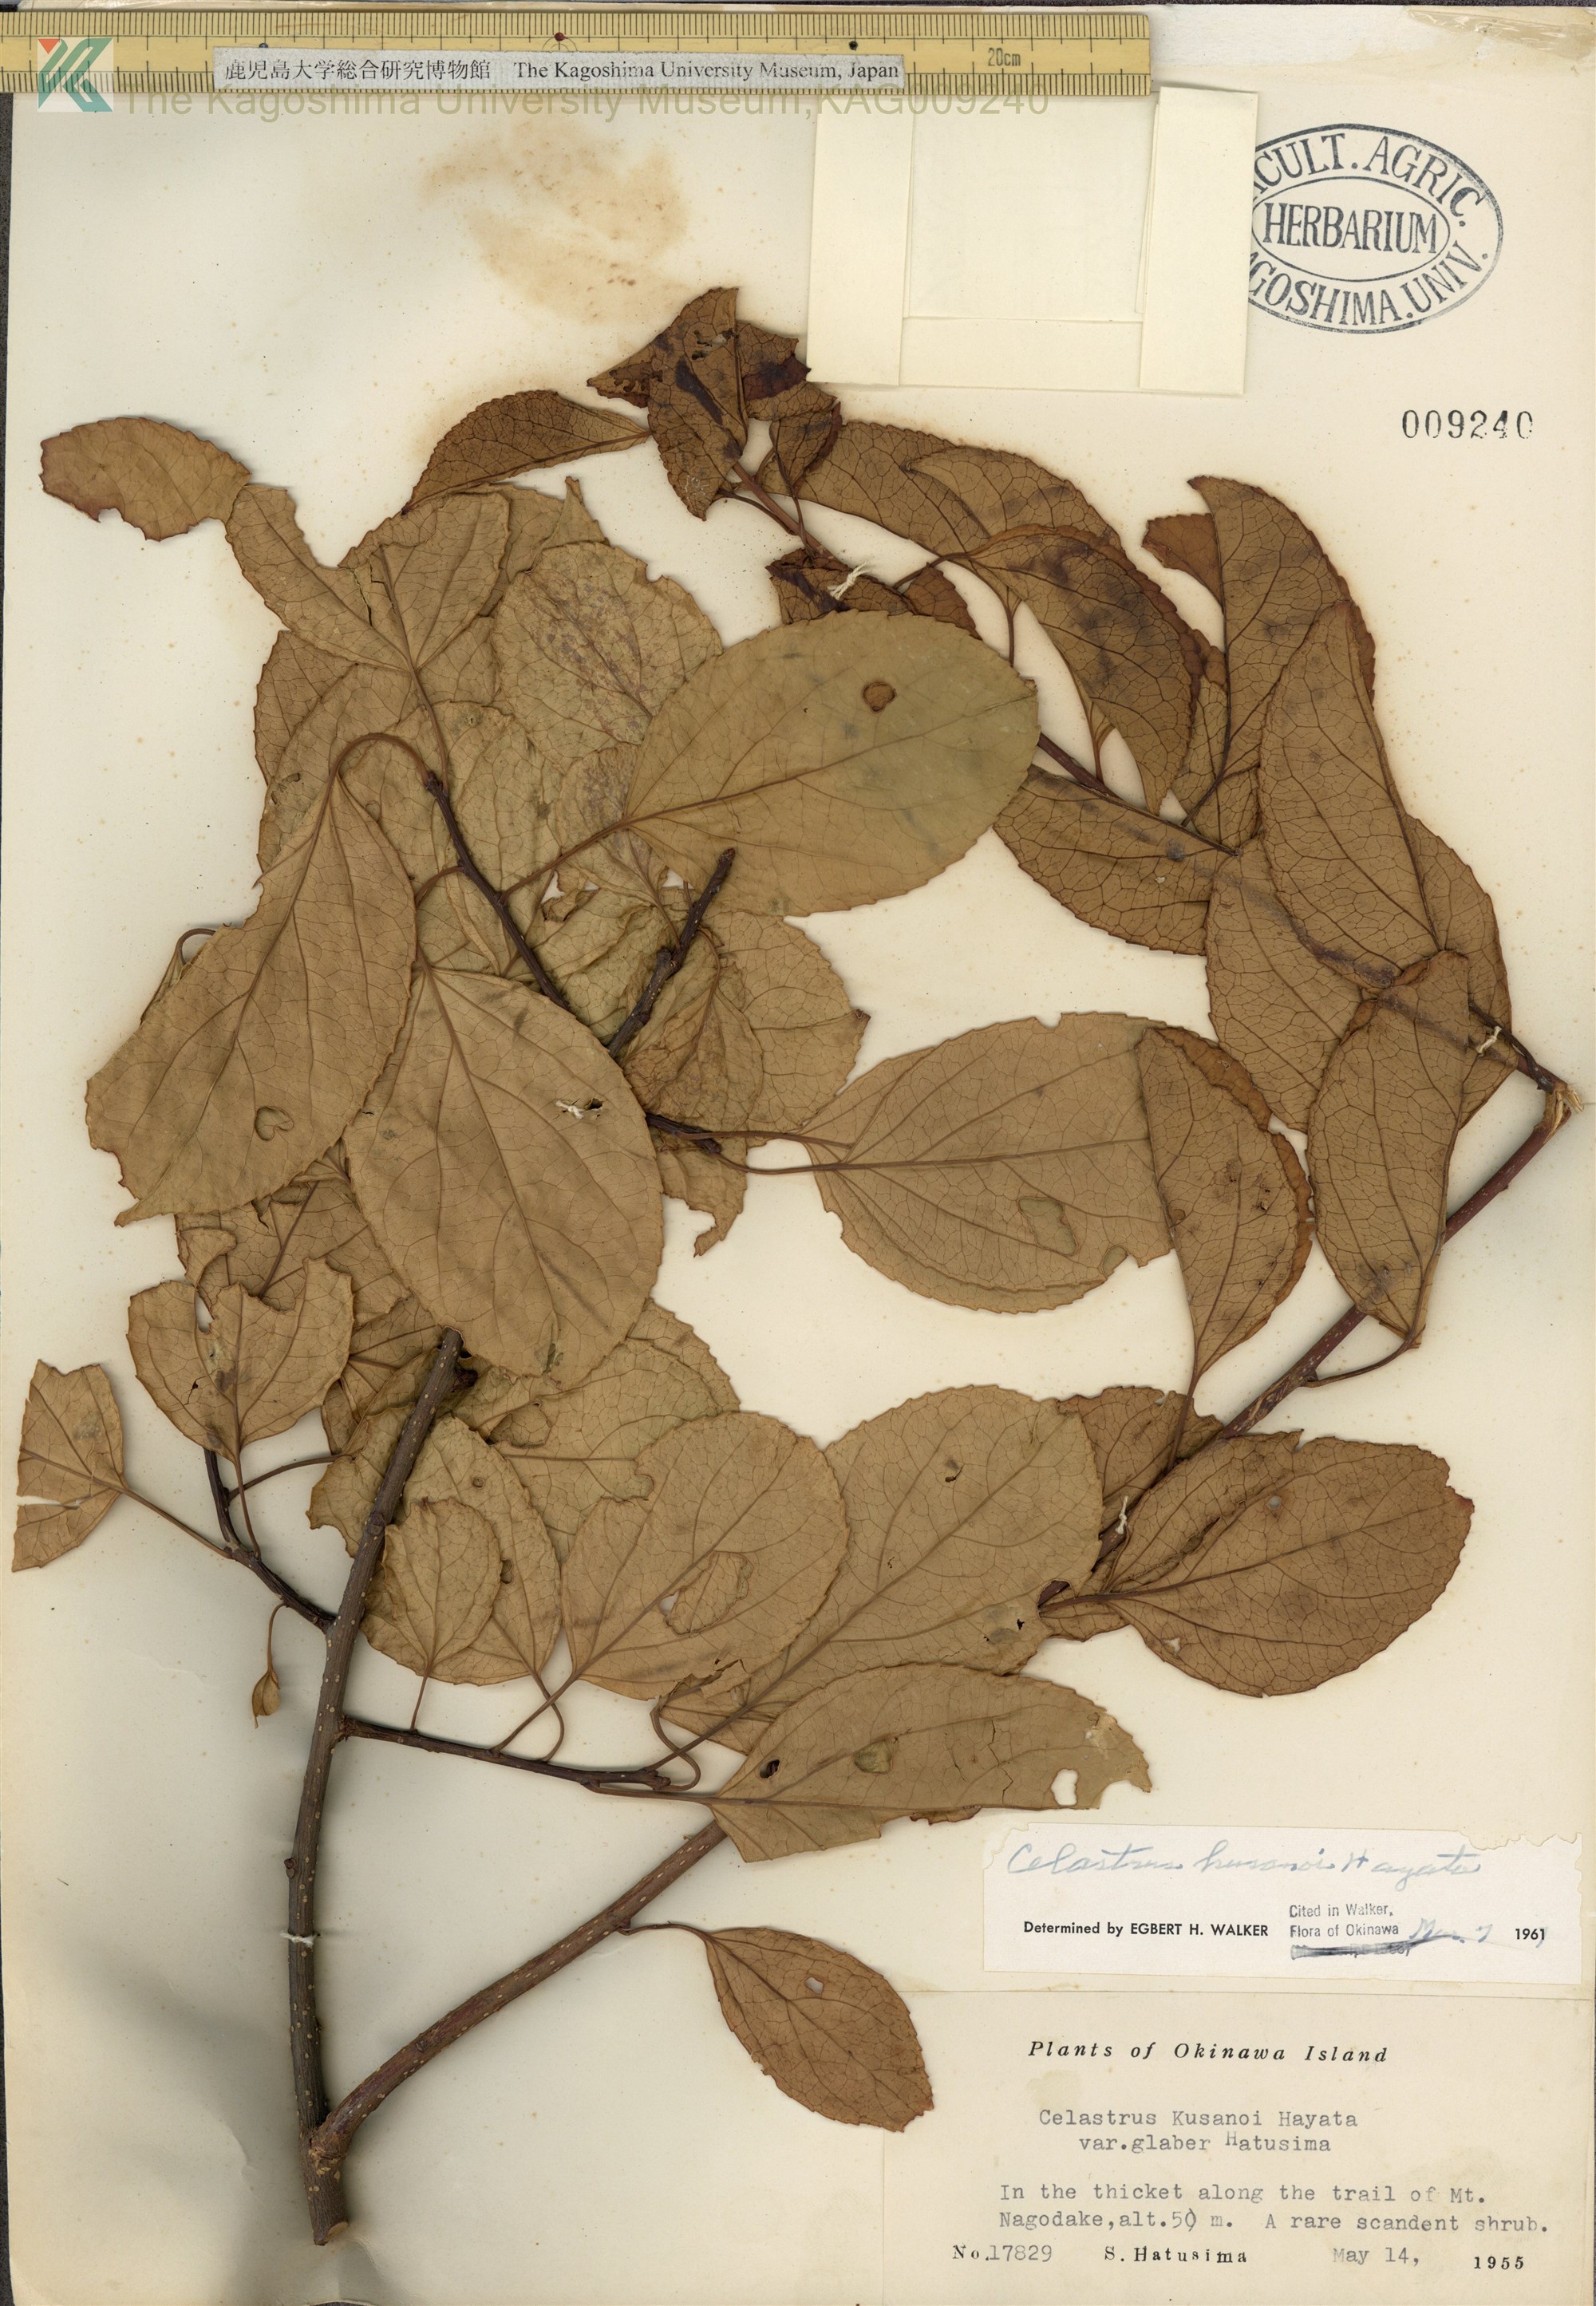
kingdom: Plantae
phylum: Tracheophyta
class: Magnoliopsida
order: Celastrales
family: Celastraceae
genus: Celastrus
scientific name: Celastrus hypoleucus
